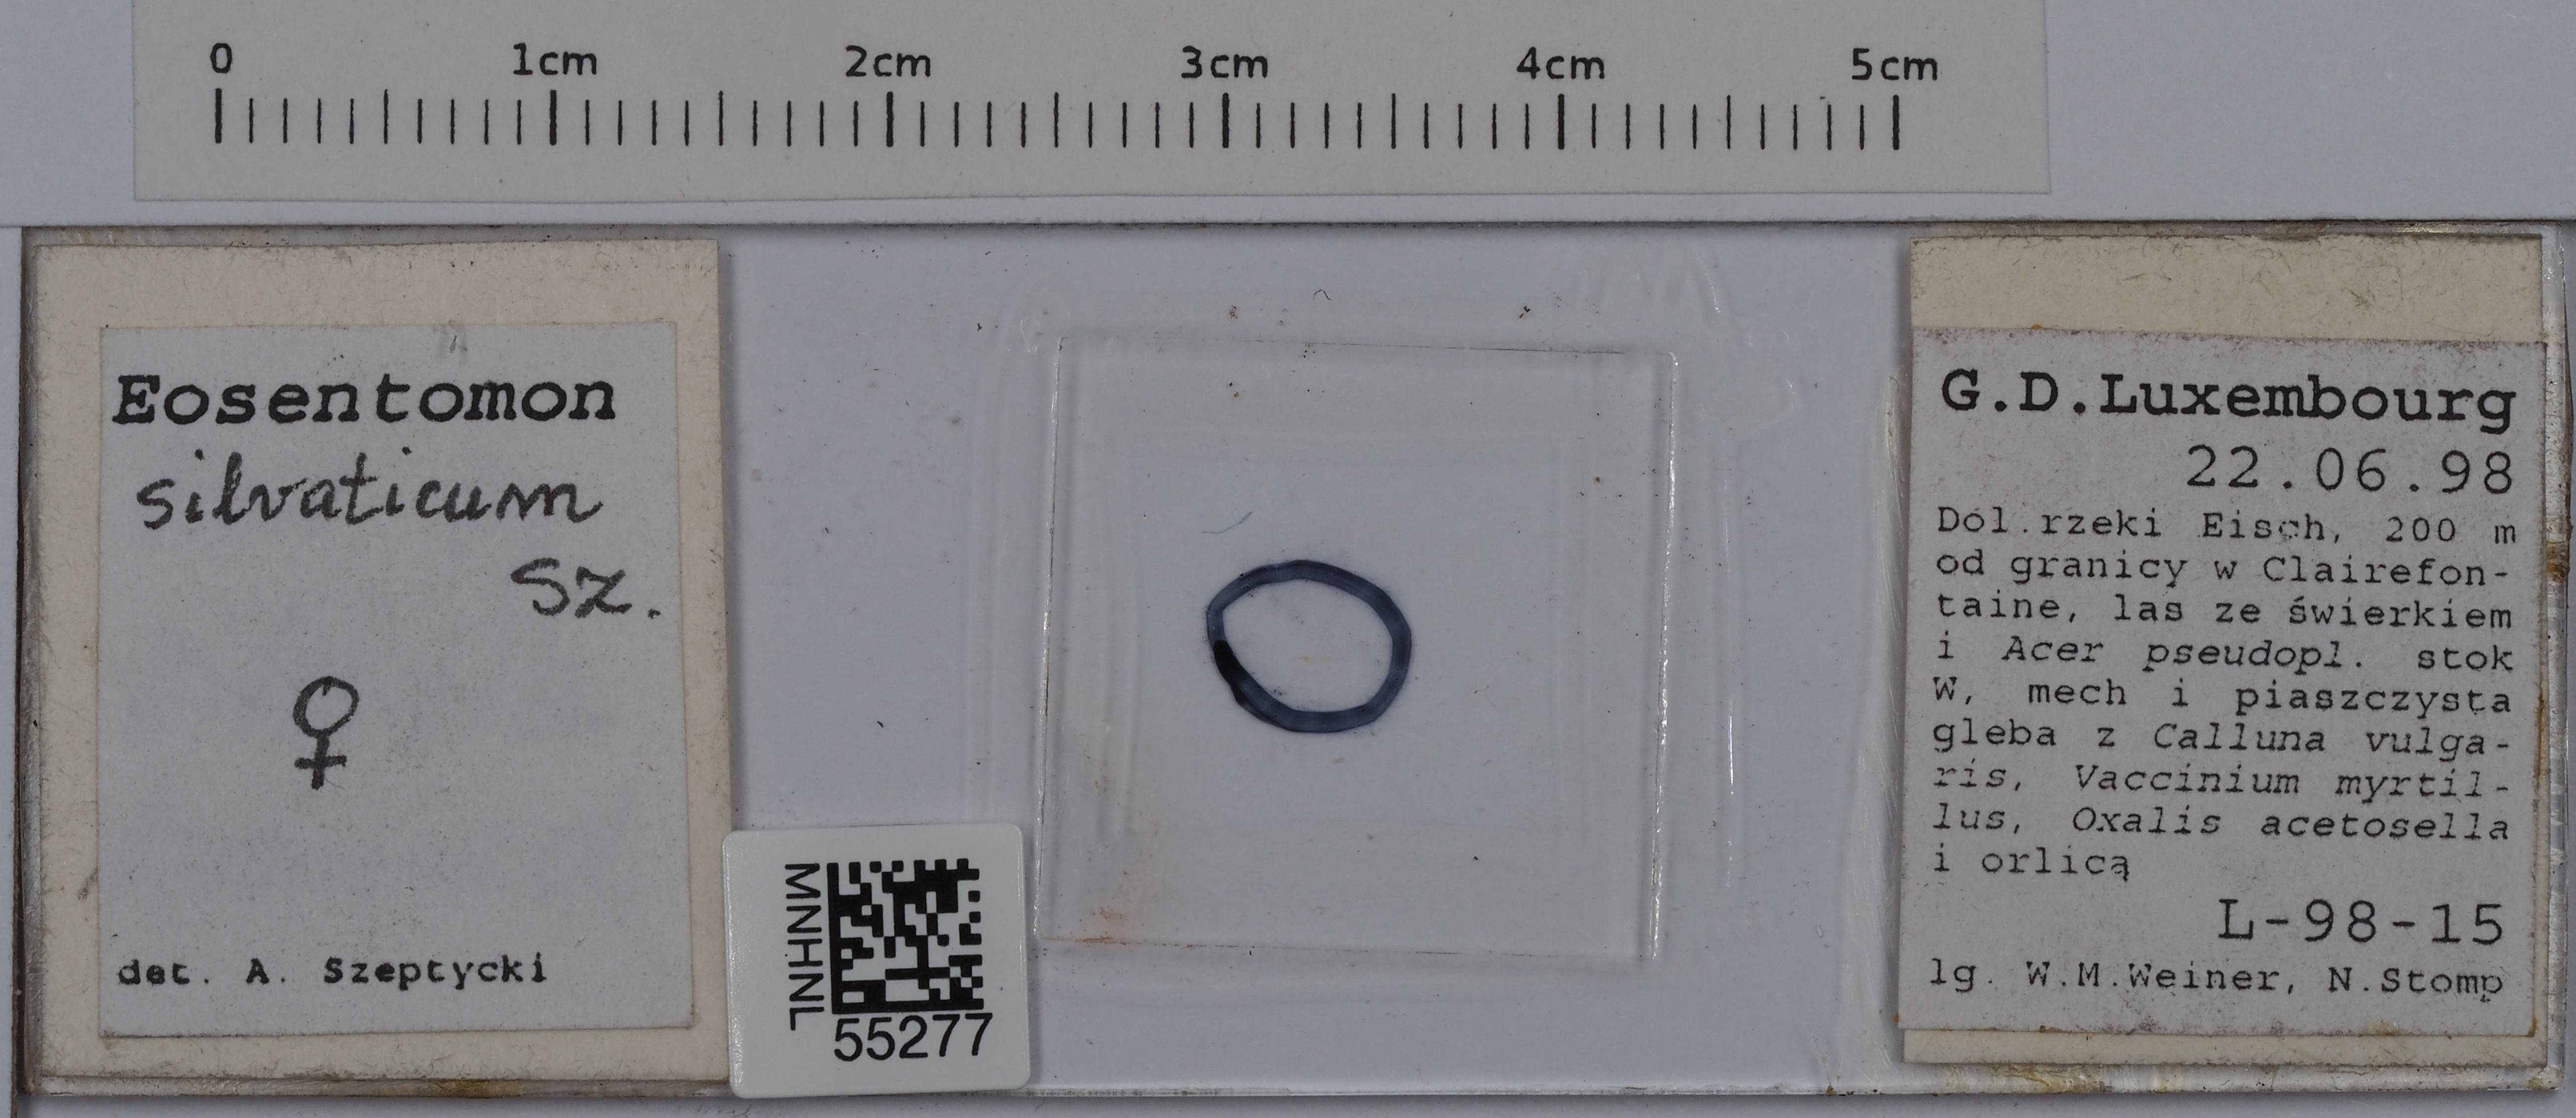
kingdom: Animalia
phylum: Arthropoda
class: Protura
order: Protura
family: Eosentomidae
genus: Eosentomon
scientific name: Eosentomon silvaticum
